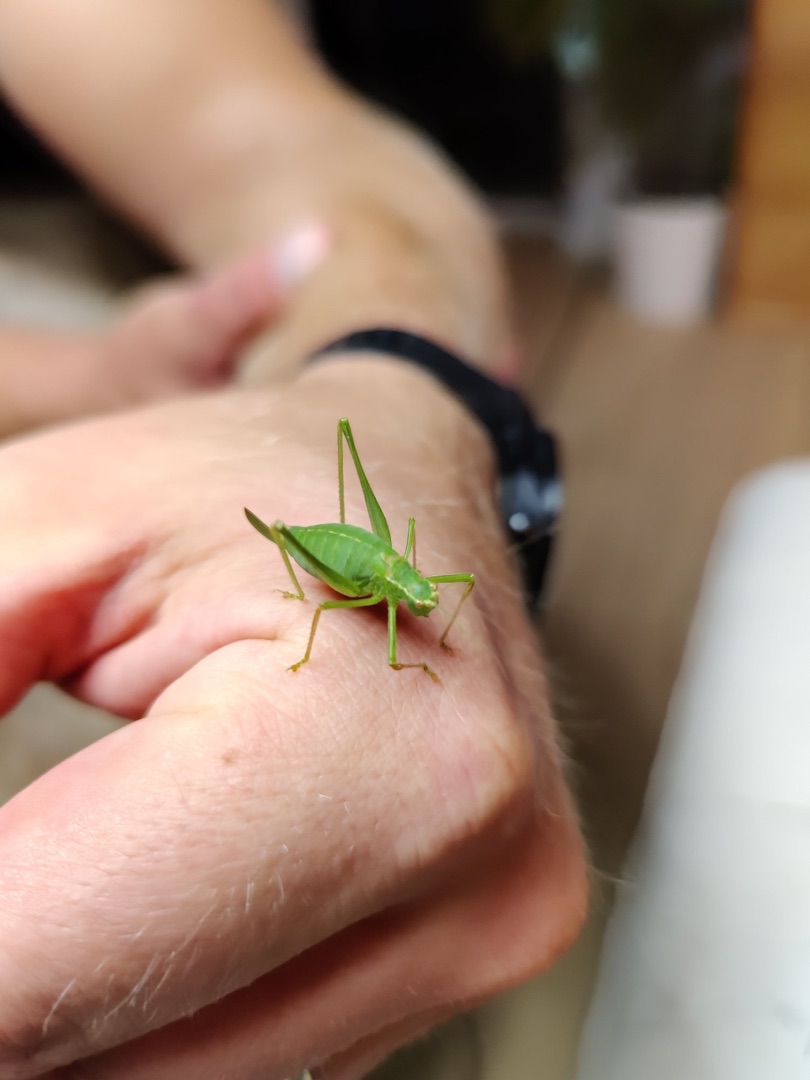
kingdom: Animalia
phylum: Arthropoda
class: Insecta
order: Orthoptera
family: Tettigoniidae
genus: Leptophyes
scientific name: Leptophyes punctatissima
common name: Krumknivgræshoppe
